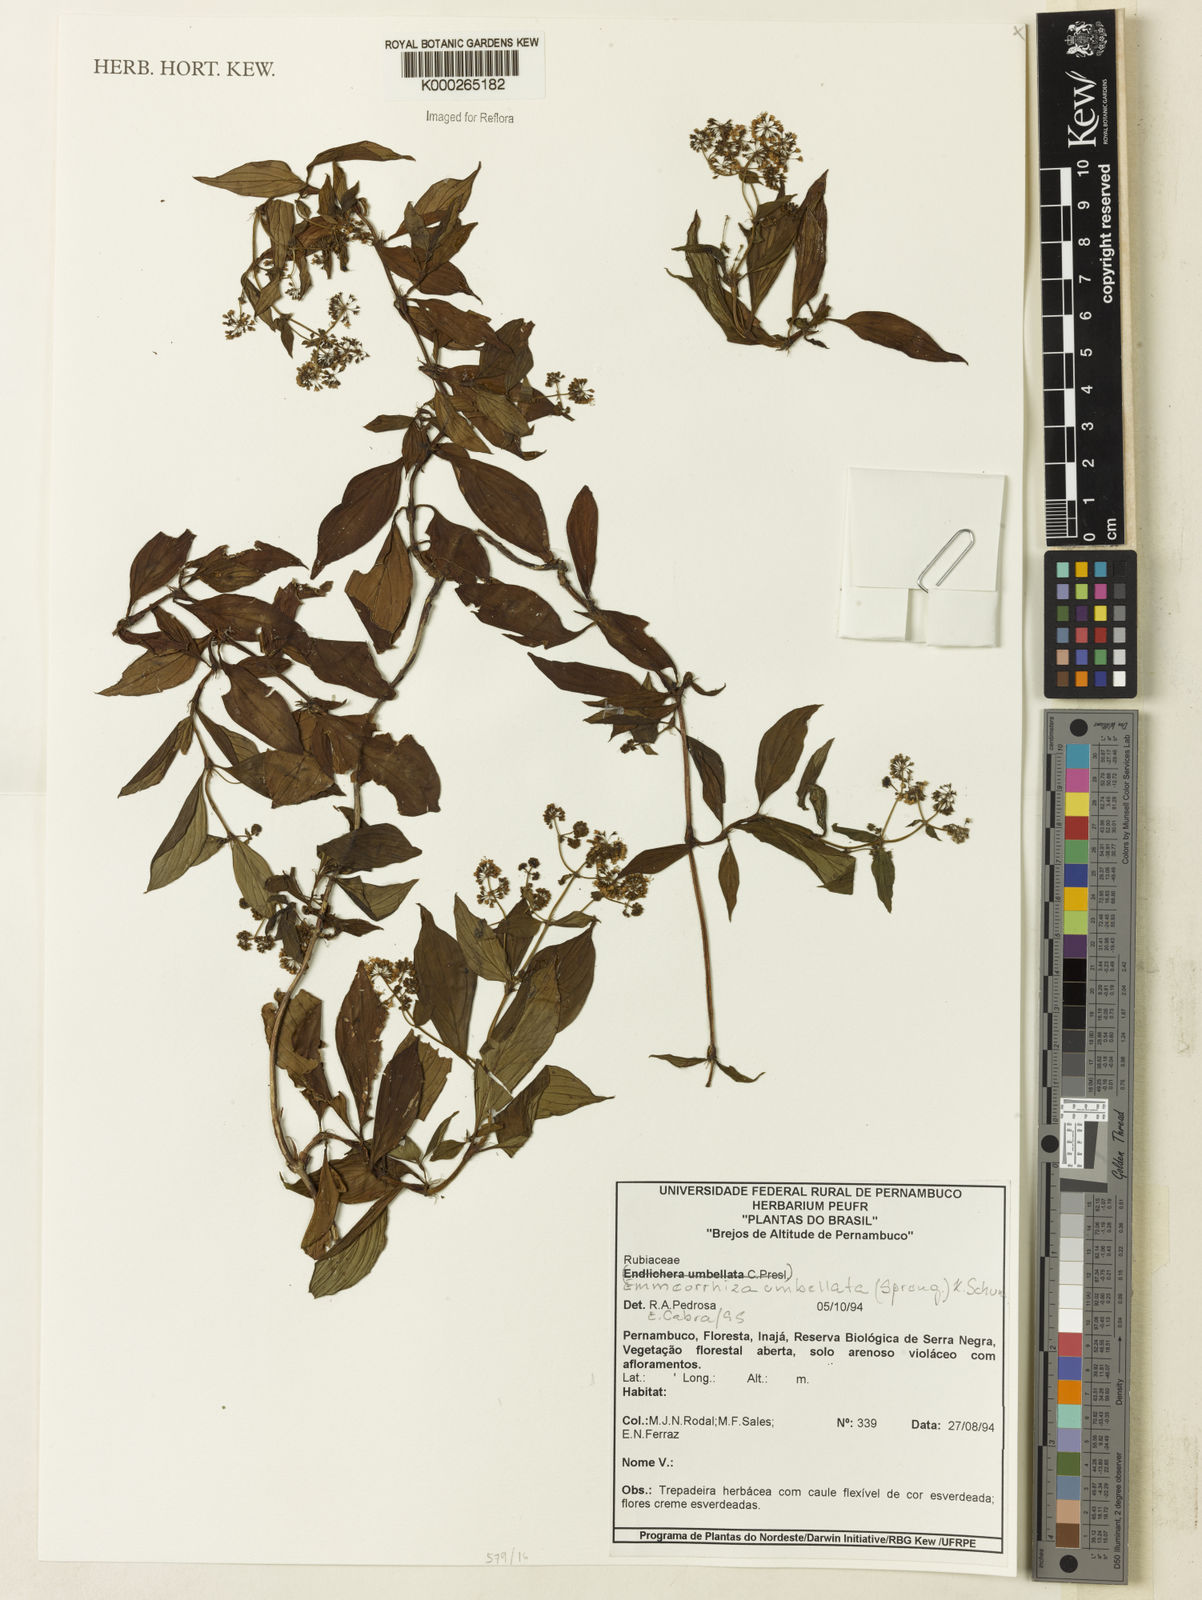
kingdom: Plantae
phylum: Tracheophyta
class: Magnoliopsida
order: Gentianales
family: Rubiaceae
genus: Emmeorhiza
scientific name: Emmeorhiza umbellata
